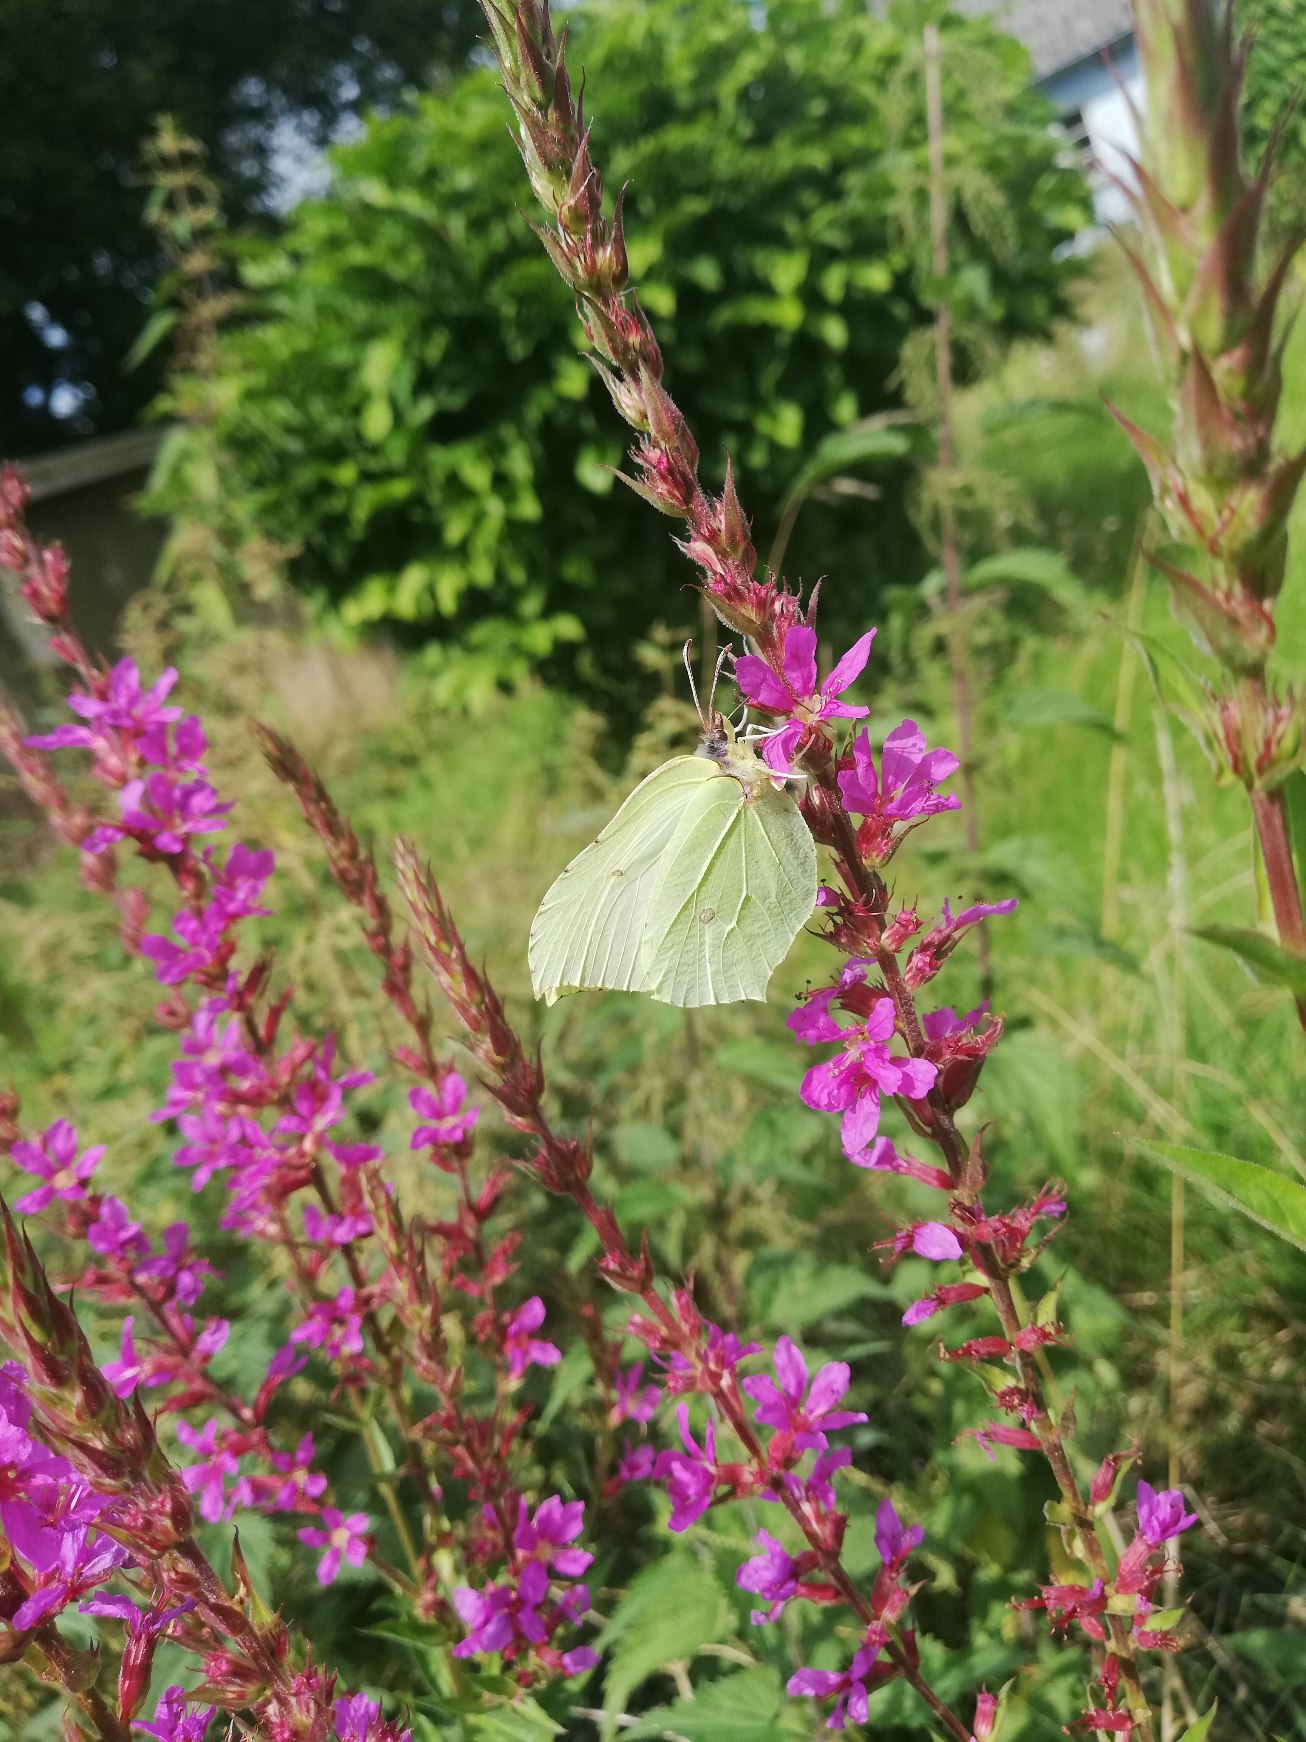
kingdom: Animalia
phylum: Arthropoda
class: Insecta
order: Lepidoptera
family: Pieridae
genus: Gonepteryx
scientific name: Gonepteryx rhamni
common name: Citronsommerfugl
